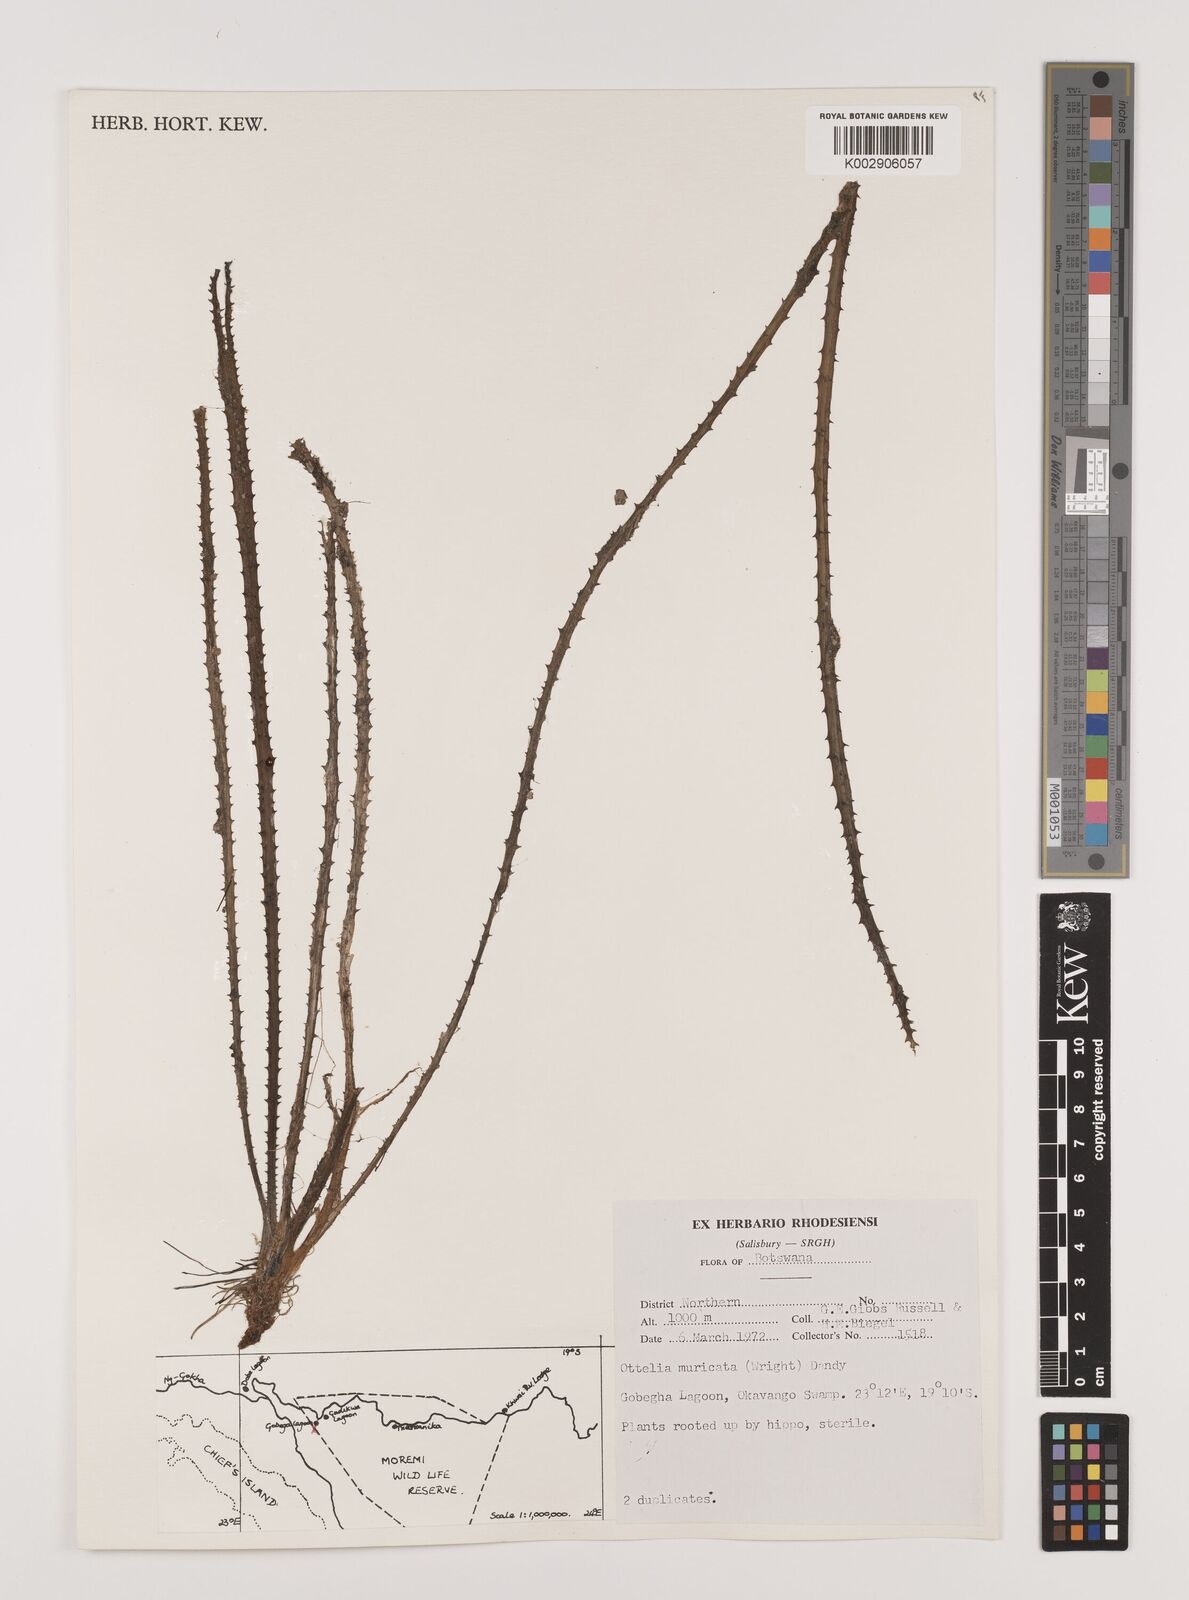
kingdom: Plantae
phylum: Tracheophyta
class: Liliopsida
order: Alismatales
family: Hydrocharitaceae
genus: Ottelia
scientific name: Ottelia muricata
